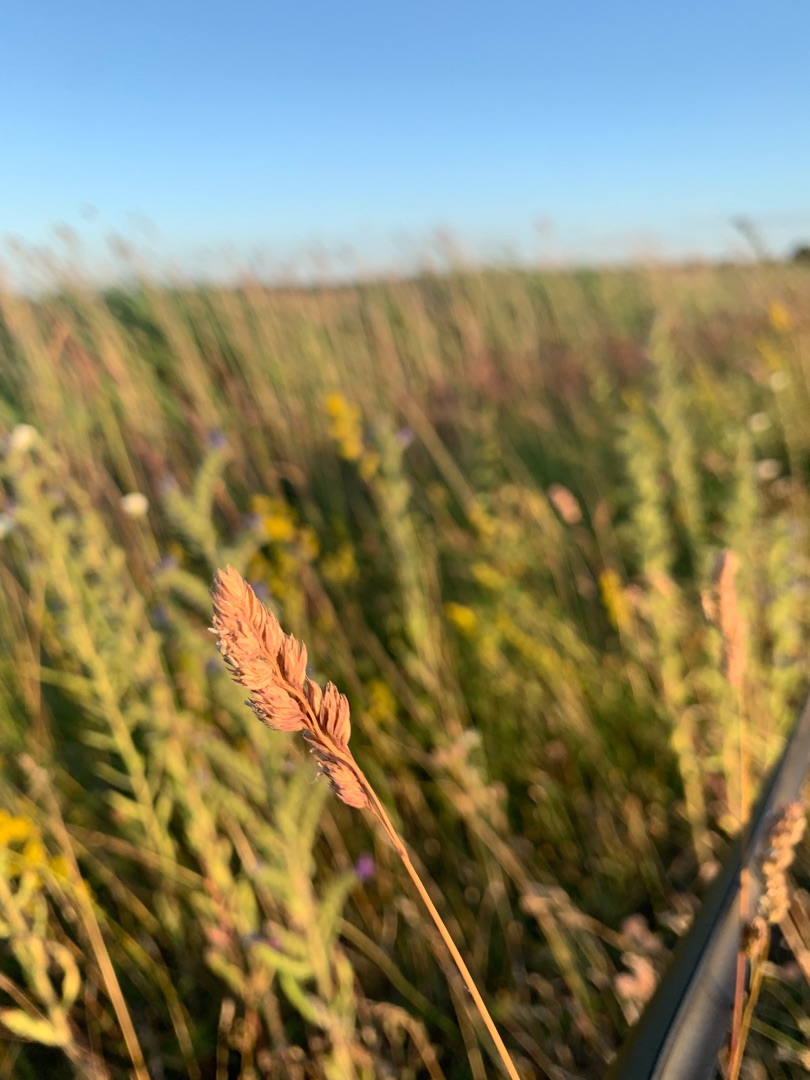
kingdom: Plantae
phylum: Tracheophyta
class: Liliopsida
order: Poales
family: Poaceae
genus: Dactylis
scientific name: Dactylis
